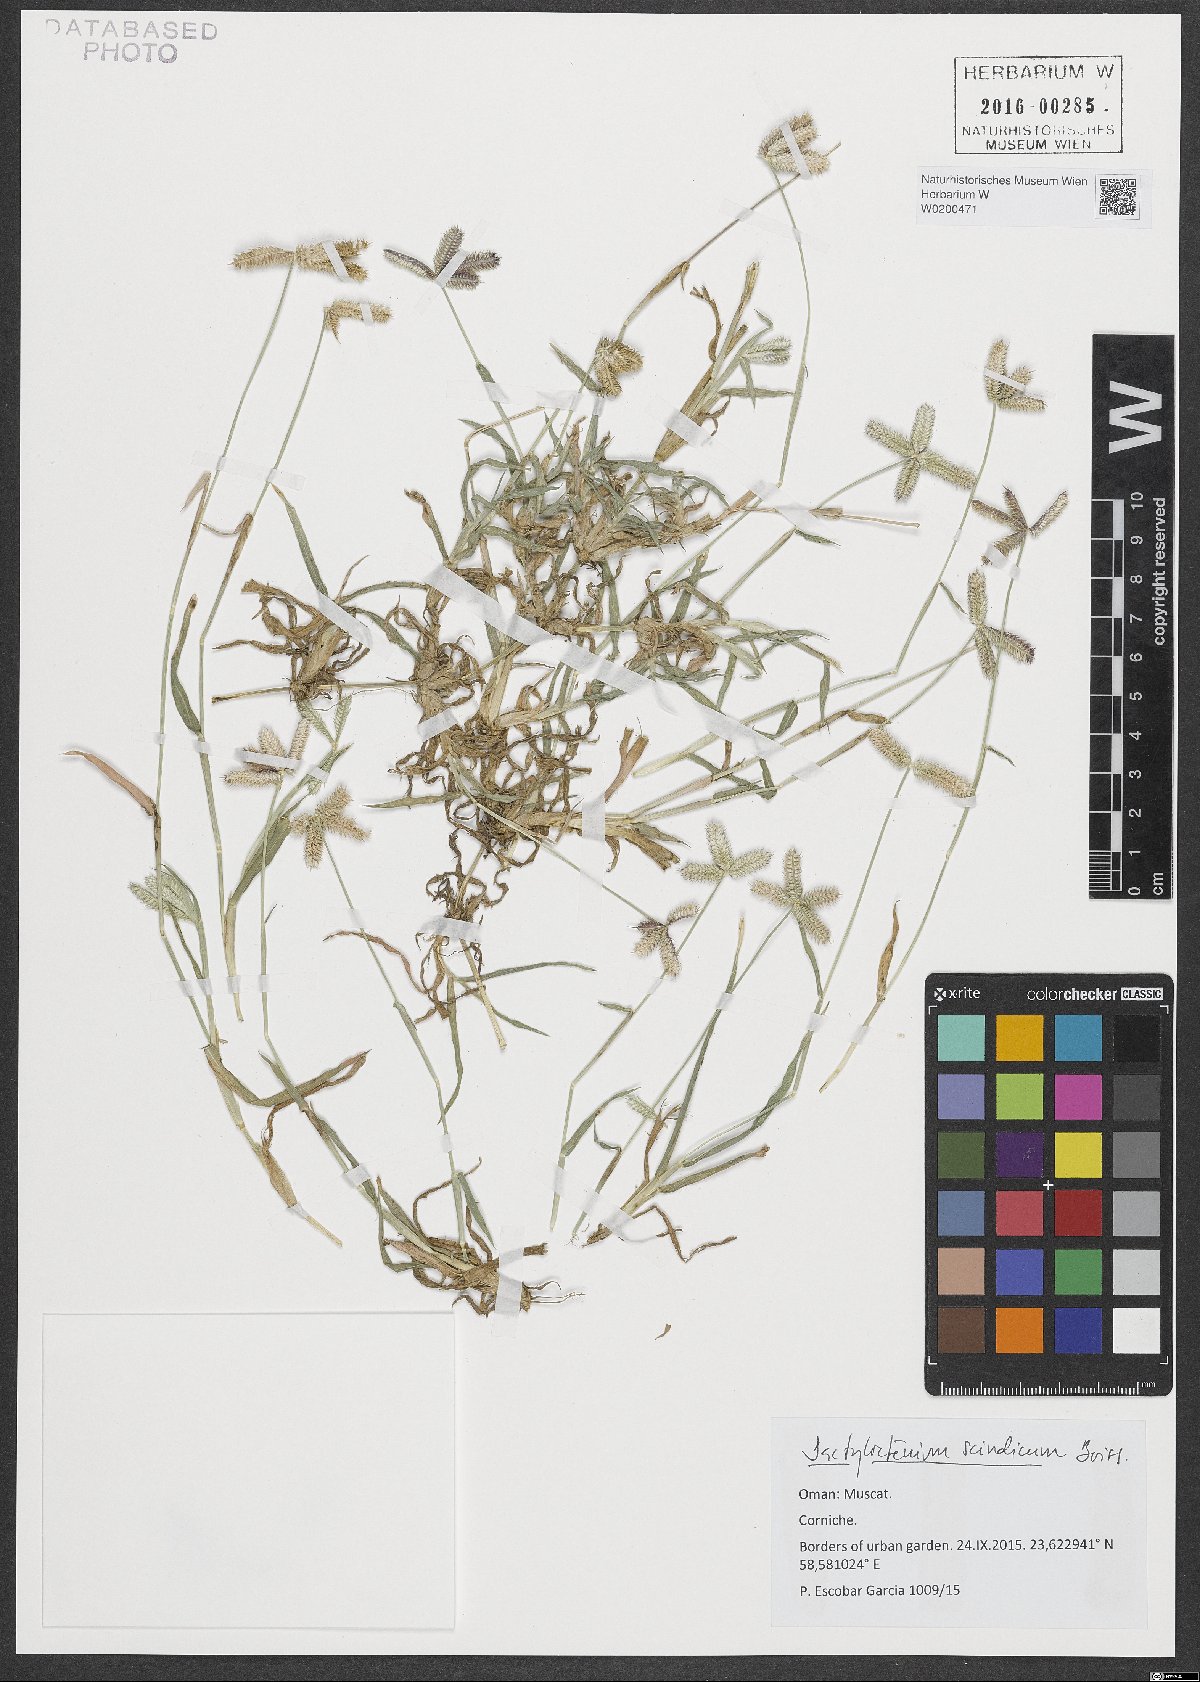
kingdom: Plantae
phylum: Tracheophyta
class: Liliopsida
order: Poales
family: Poaceae
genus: Dactyloctenium
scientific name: Dactyloctenium aegyptium
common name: Egyptian grass
